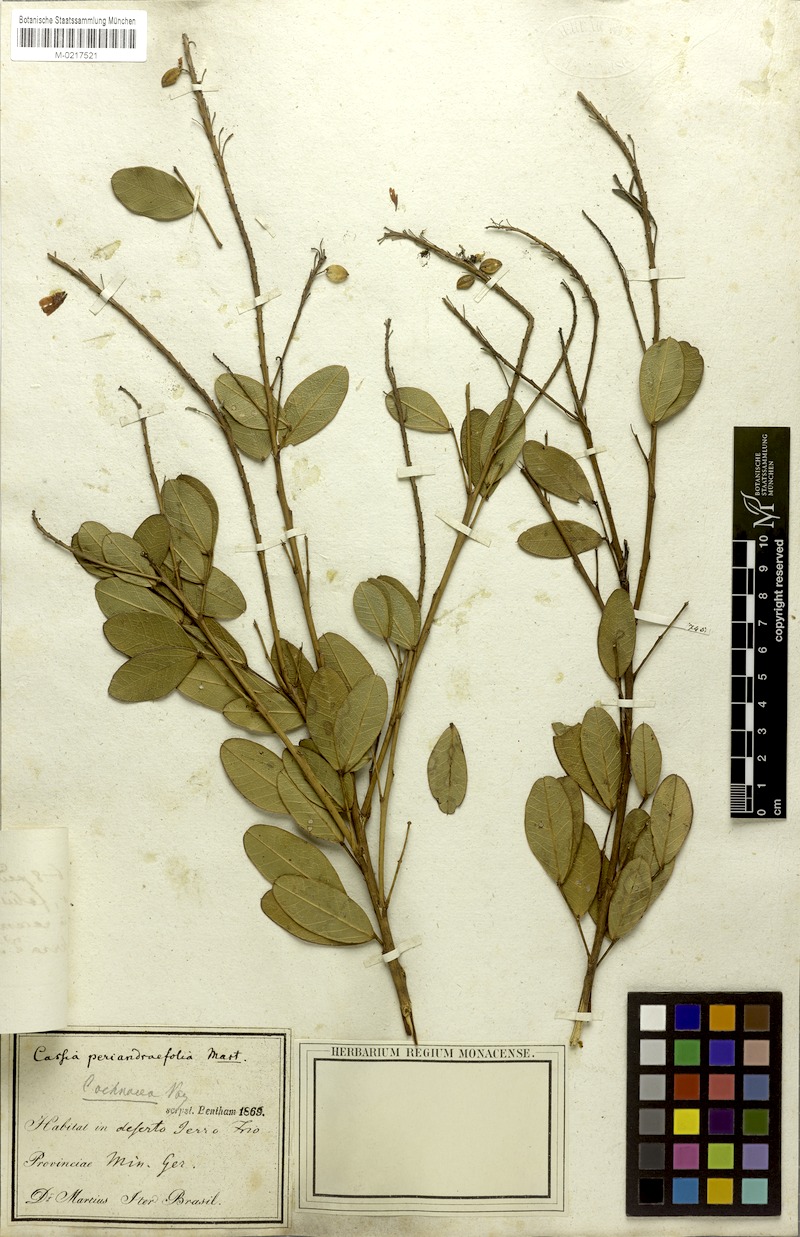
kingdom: Plantae
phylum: Tracheophyta
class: Magnoliopsida
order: Fabales
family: Fabaceae
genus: Chamaecrista
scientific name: Chamaecrista ochnacea
